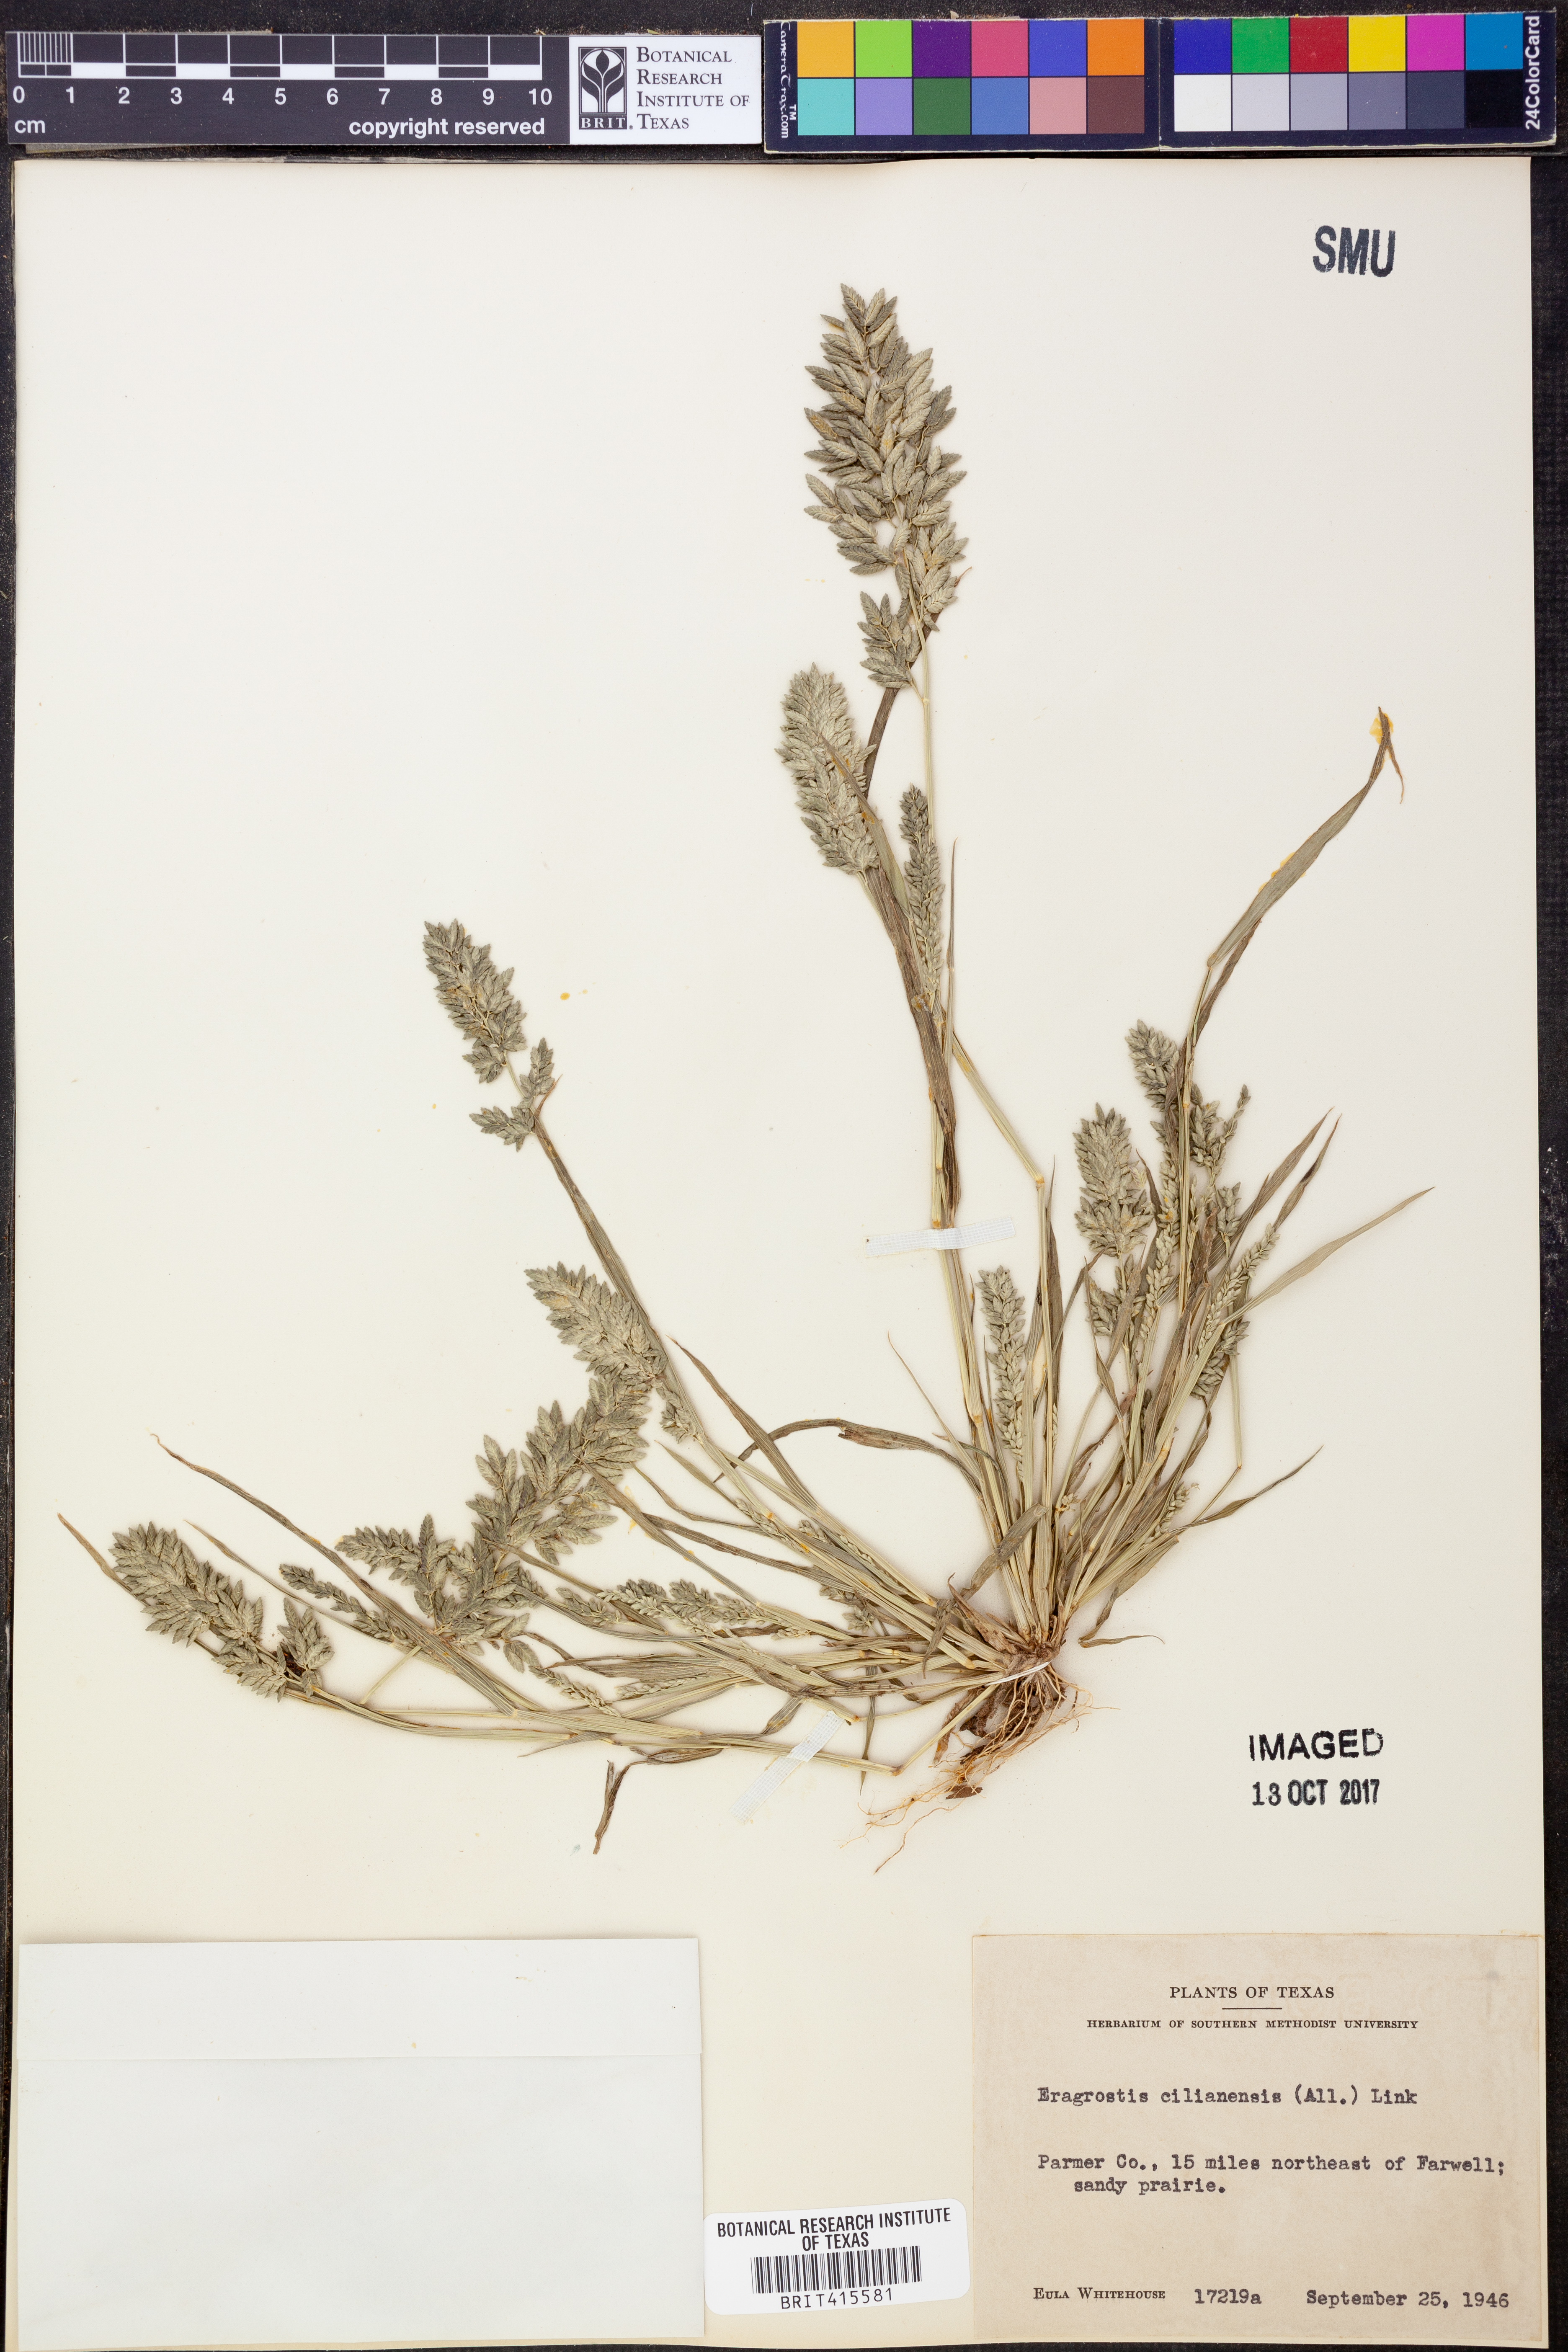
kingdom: Plantae
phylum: Tracheophyta
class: Liliopsida
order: Poales
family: Poaceae
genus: Eragrostis
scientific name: Eragrostis cilianensis
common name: Stinkgrass
